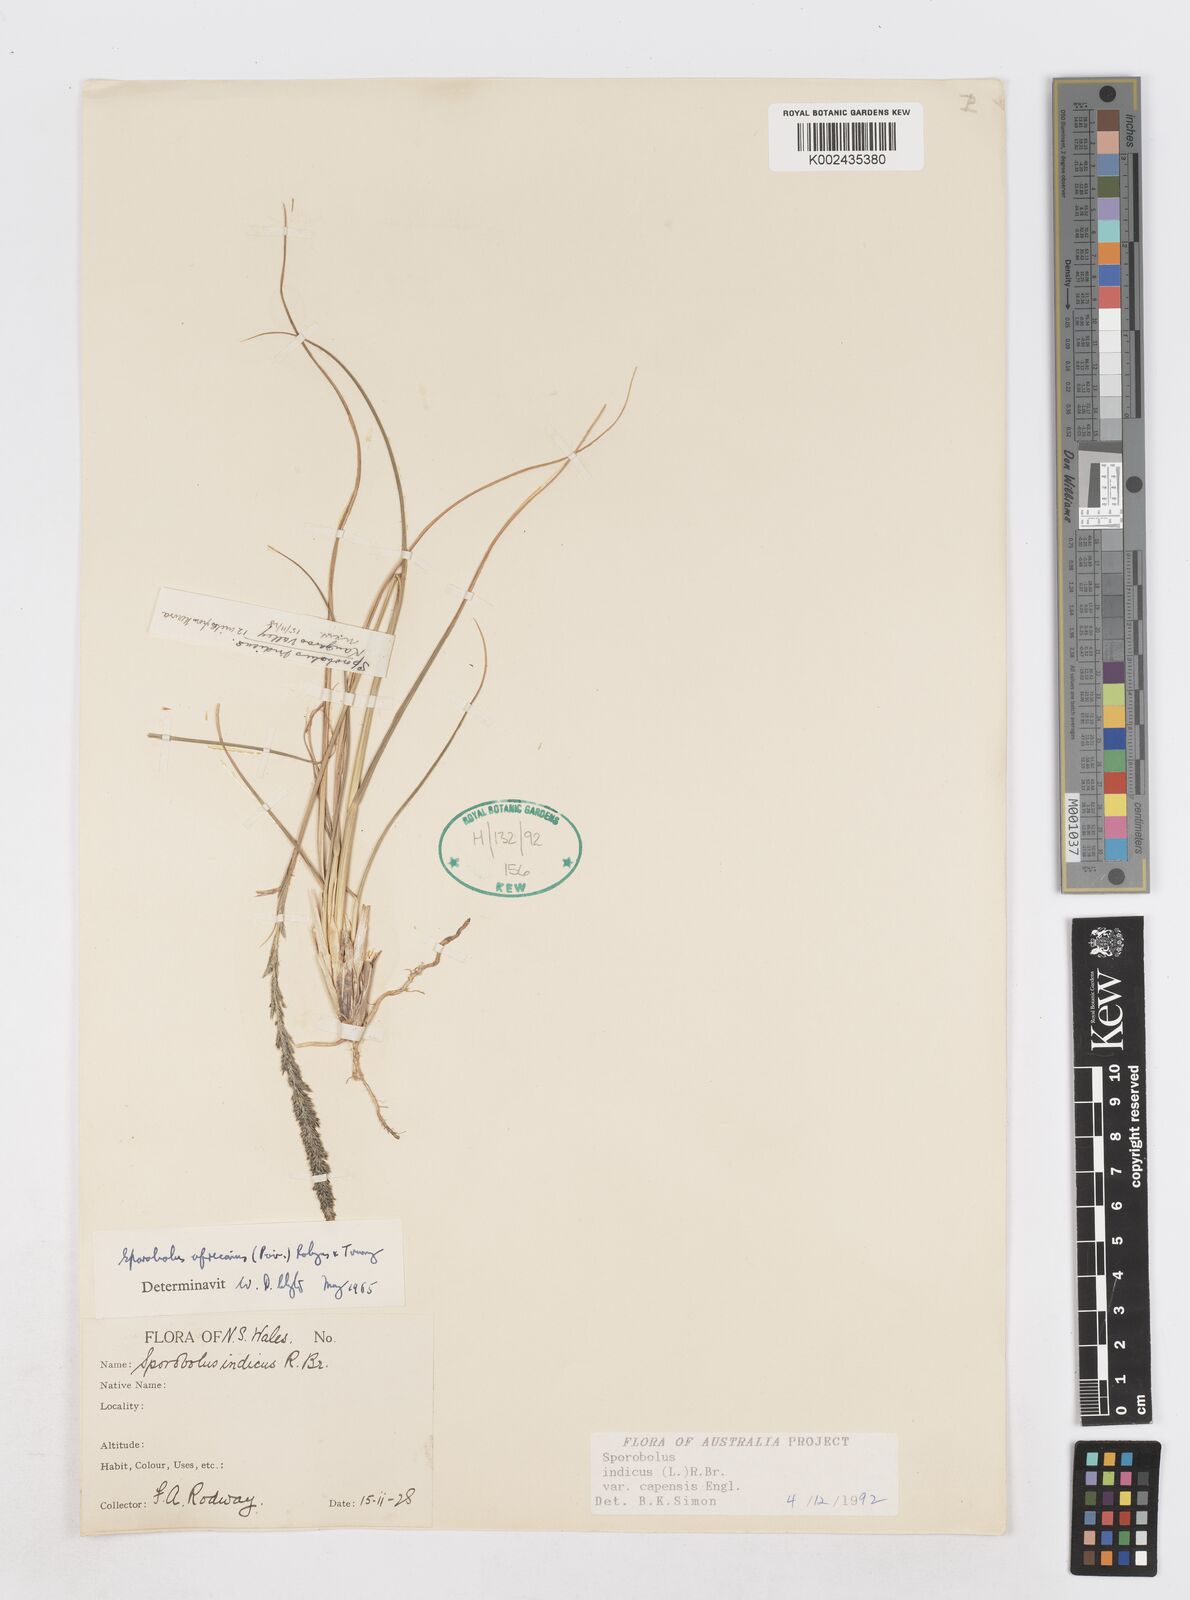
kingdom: Plantae
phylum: Tracheophyta
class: Liliopsida
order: Poales
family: Poaceae
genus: Sporobolus
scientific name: Sporobolus africanus
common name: African dropseed
